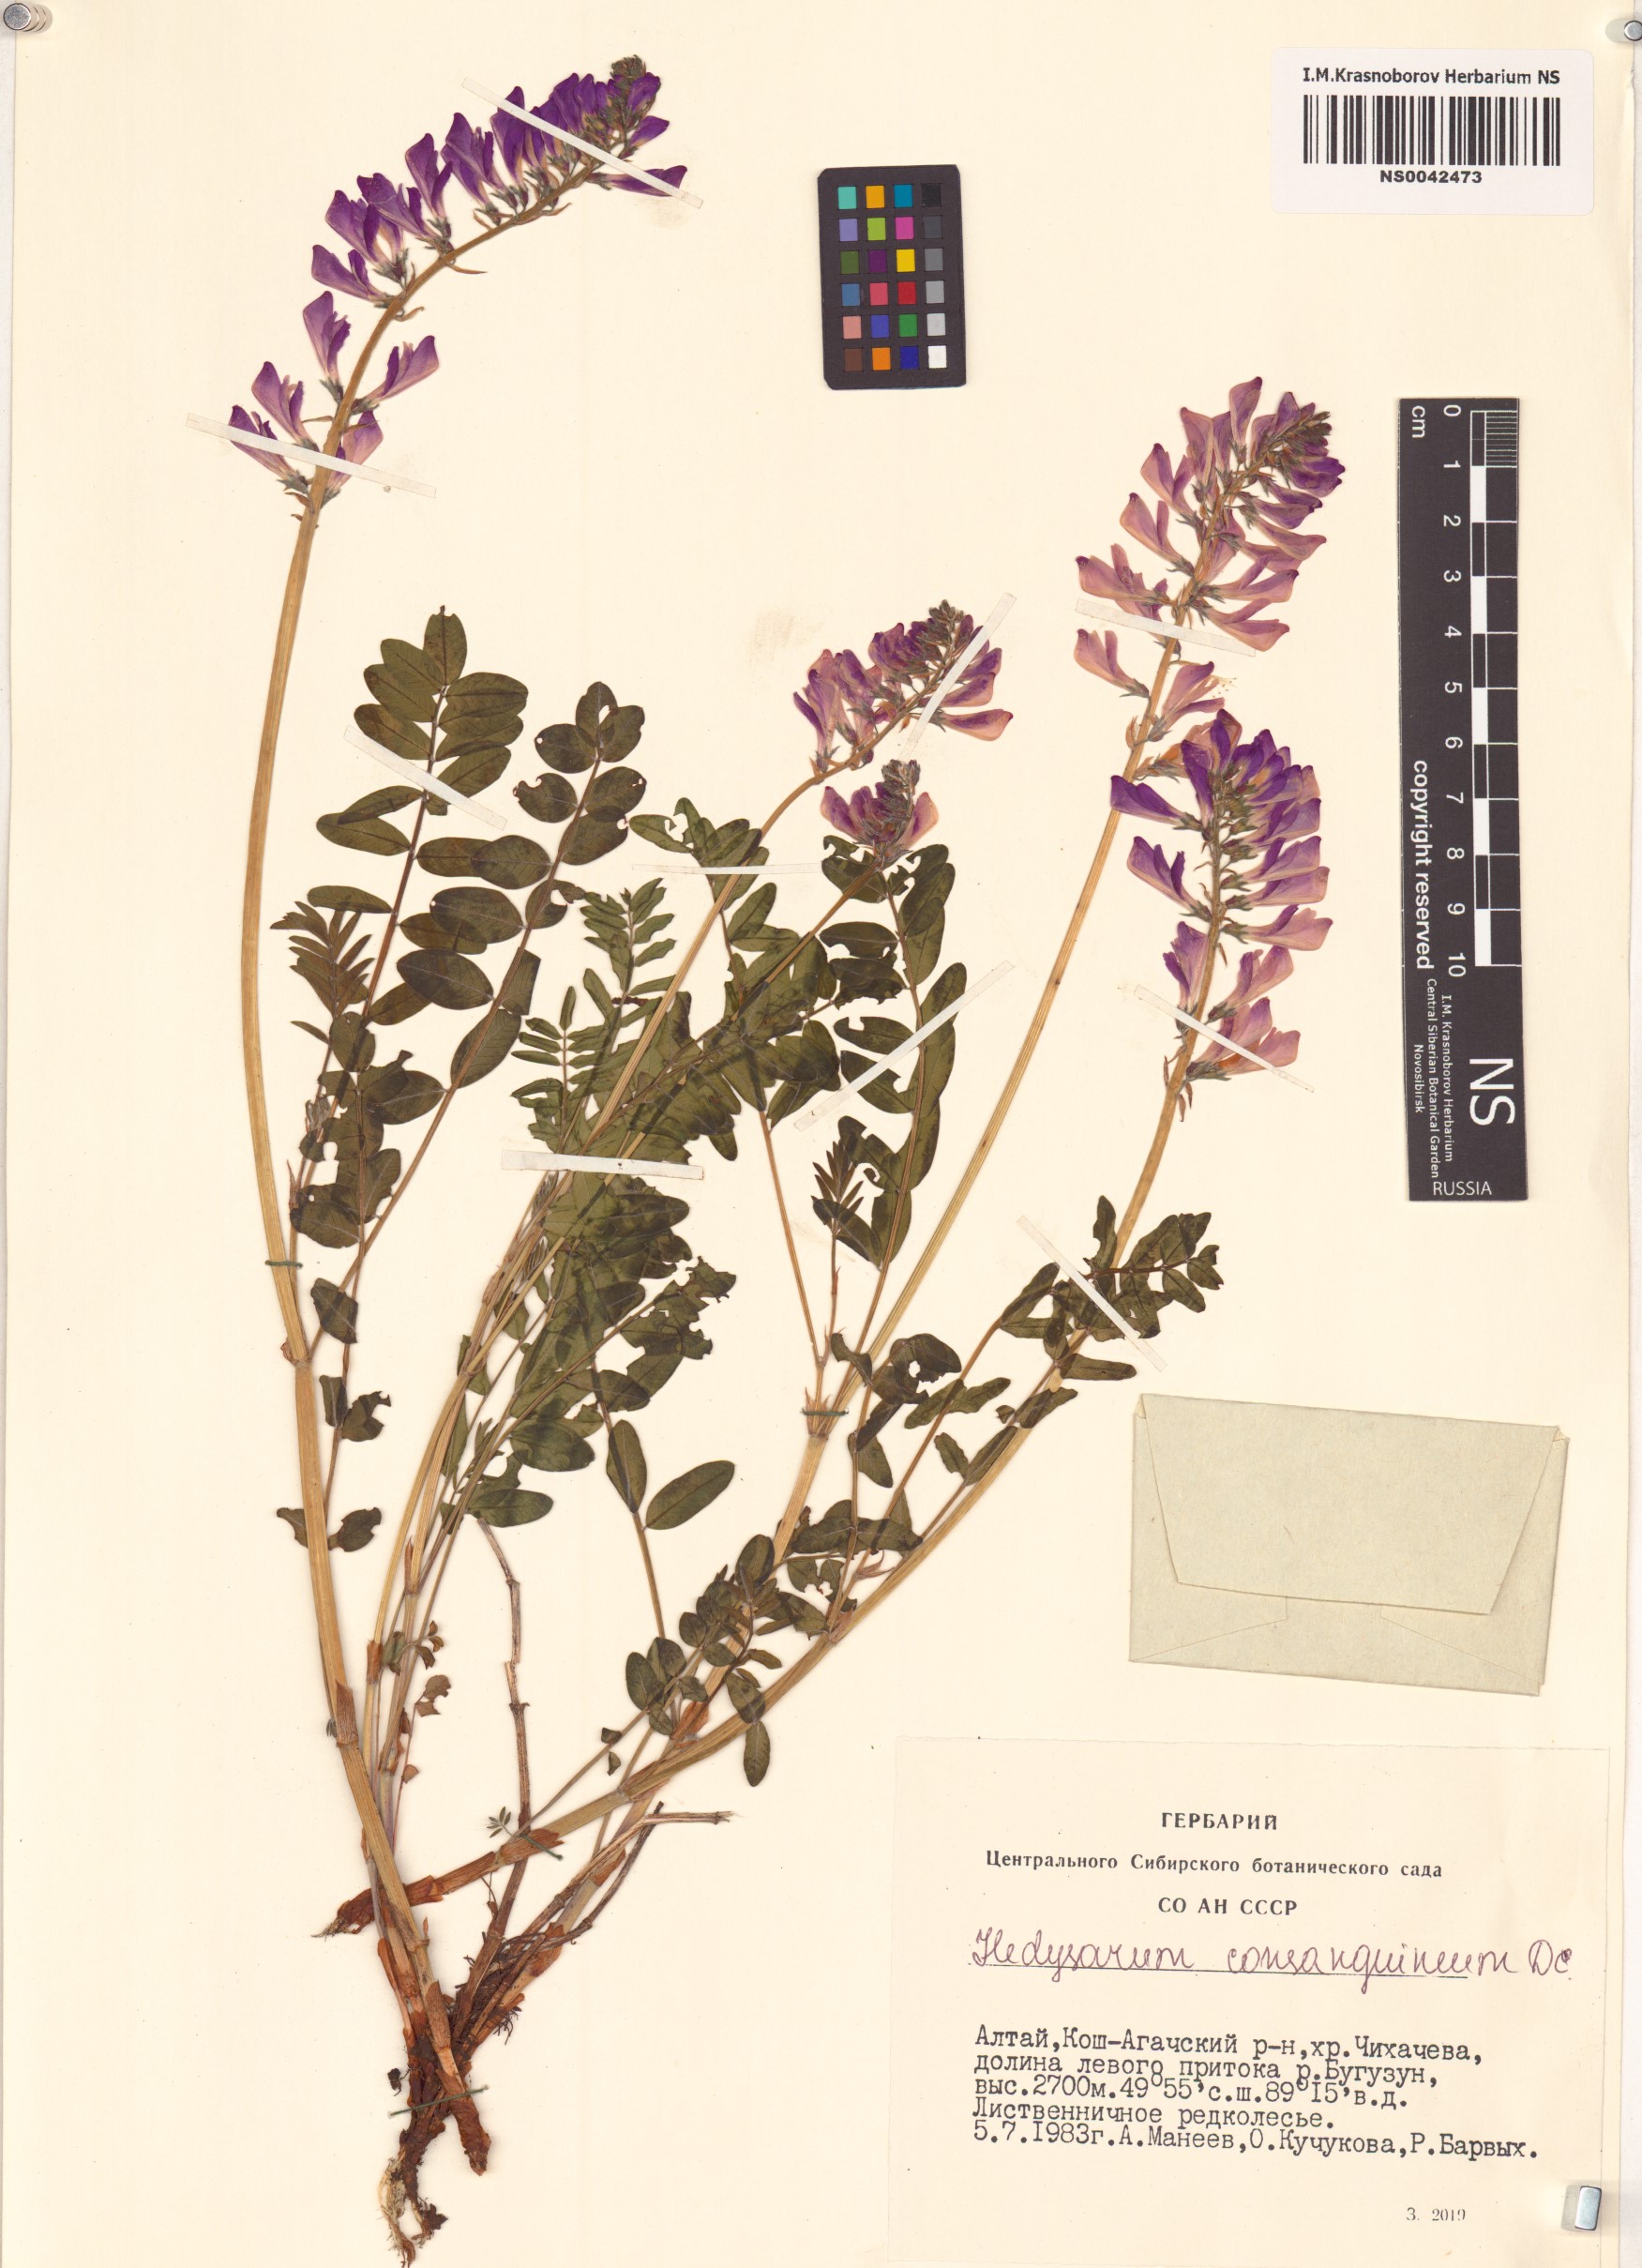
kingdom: Plantae
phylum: Tracheophyta
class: Magnoliopsida
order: Fabales
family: Fabaceae
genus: Hedysarum
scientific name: Hedysarum consanguineum
